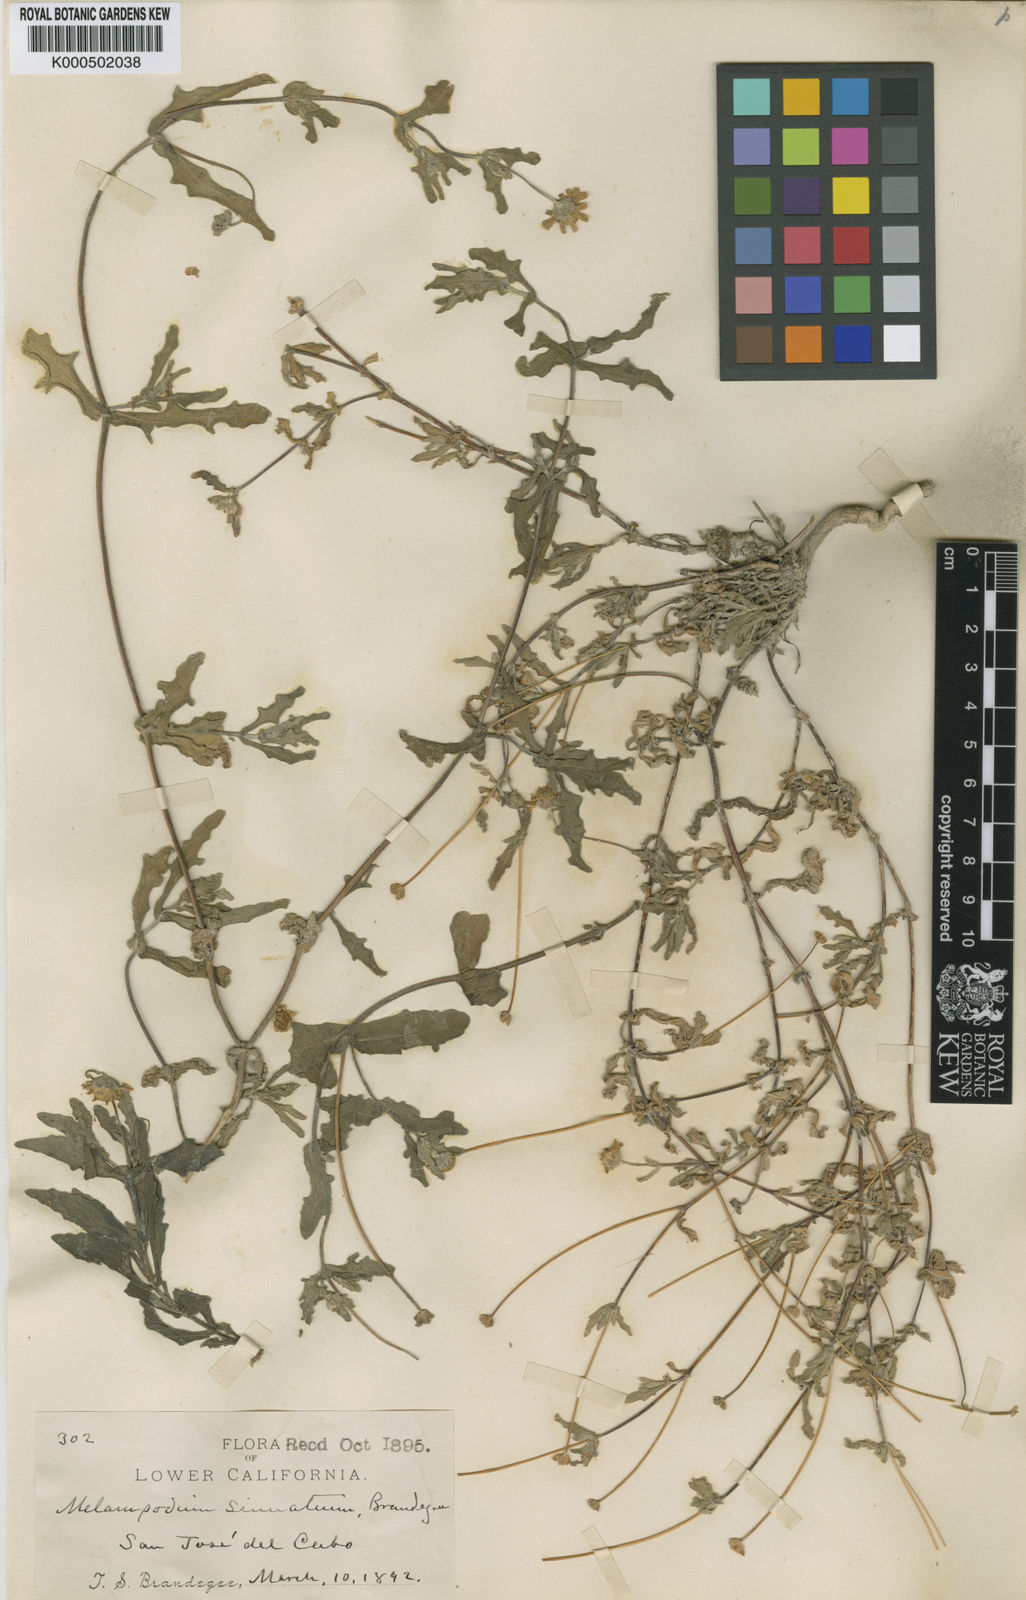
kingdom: Plantae
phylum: Tracheophyta
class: Magnoliopsida
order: Asterales
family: Asteraceae
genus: Melampodium
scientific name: Melampodium sinuatum
